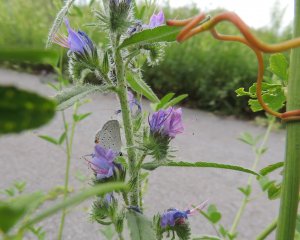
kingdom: Animalia
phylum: Arthropoda
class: Insecta
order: Lepidoptera
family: Lycaenidae
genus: Elkalyce
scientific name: Elkalyce comyntas
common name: Eastern Tailed-Blue
